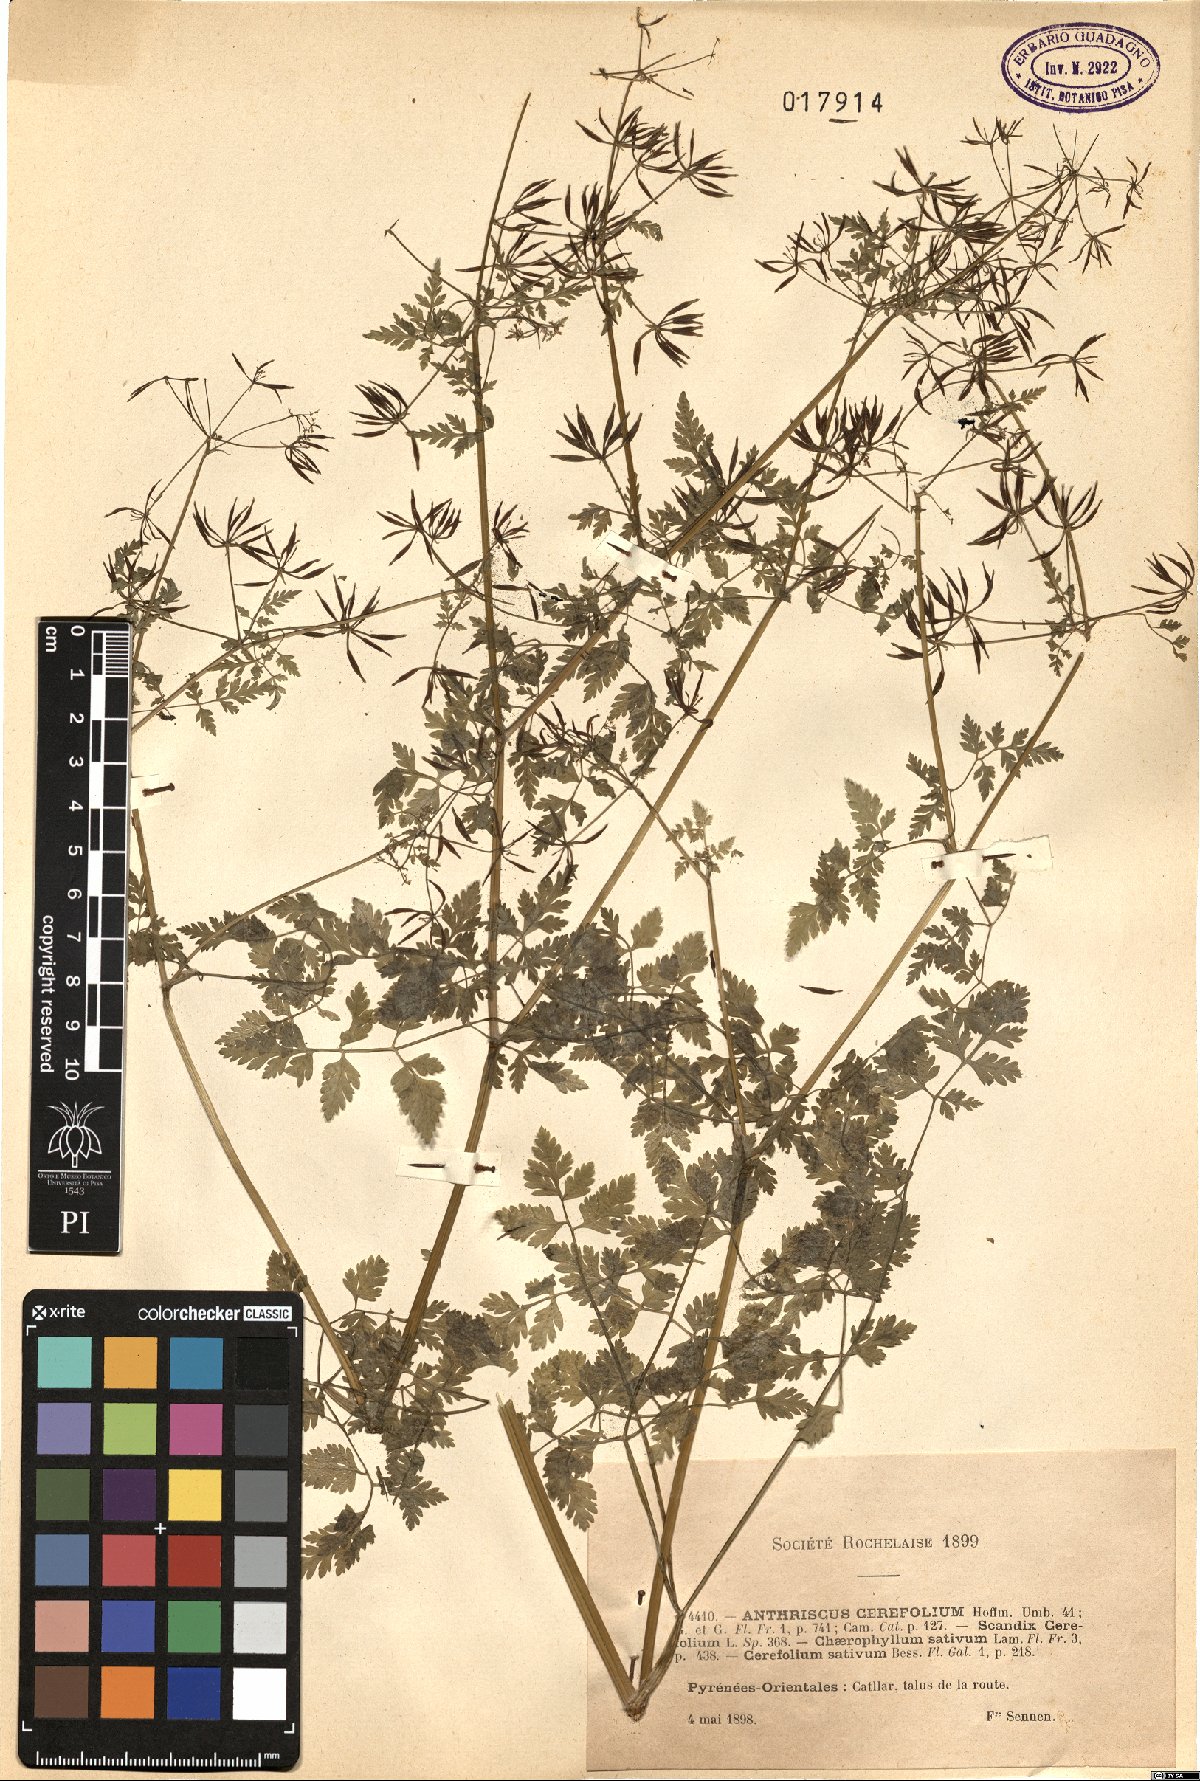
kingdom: Plantae
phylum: Tracheophyta
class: Magnoliopsida
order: Apiales
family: Apiaceae
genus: Anthriscus
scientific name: Anthriscus cerefolium
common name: Garden chervil
